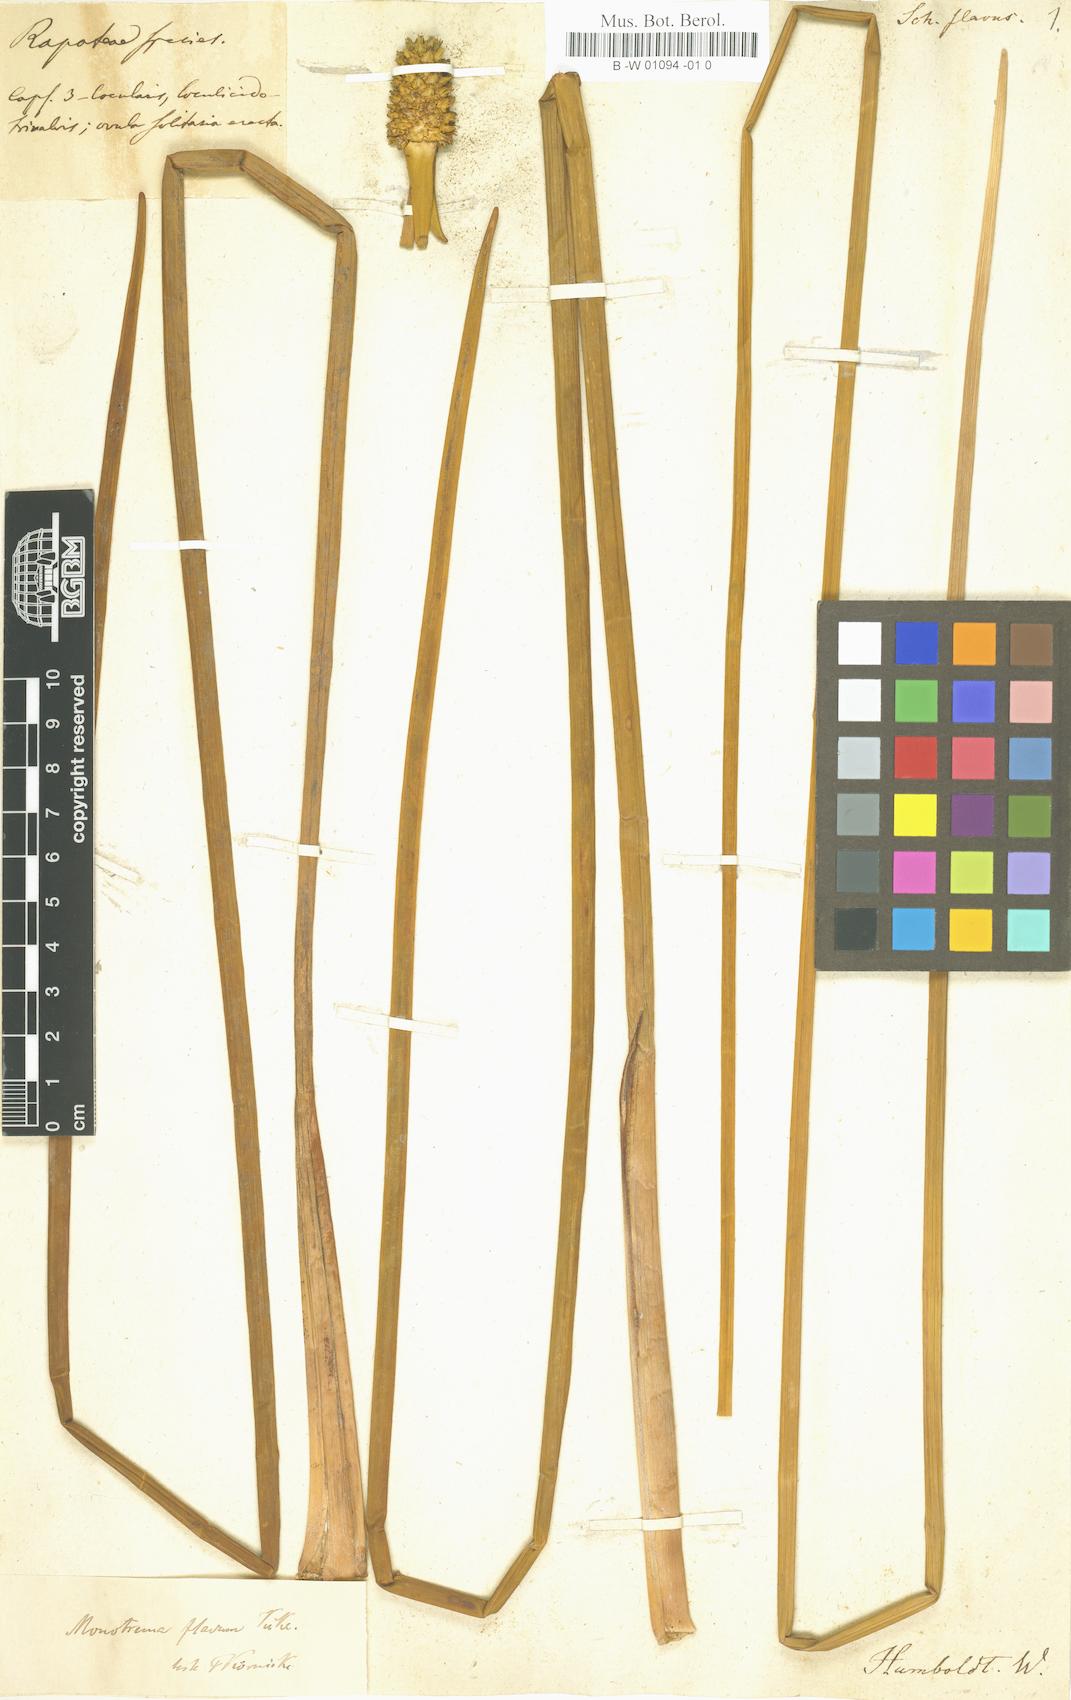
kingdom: Plantae
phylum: Tracheophyta
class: Liliopsida
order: Poales
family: Rapateaceae
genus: Duckea
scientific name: Duckea flava
